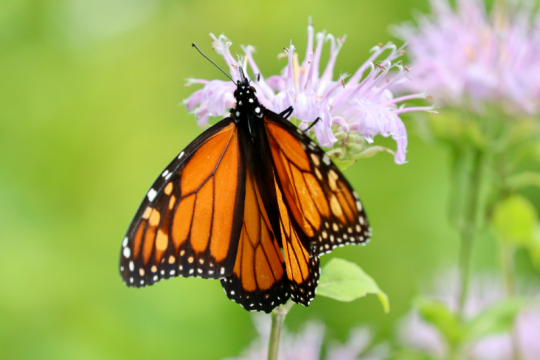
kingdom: Animalia
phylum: Arthropoda
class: Insecta
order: Lepidoptera
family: Nymphalidae
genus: Danaus
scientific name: Danaus plexippus
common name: Monarch
